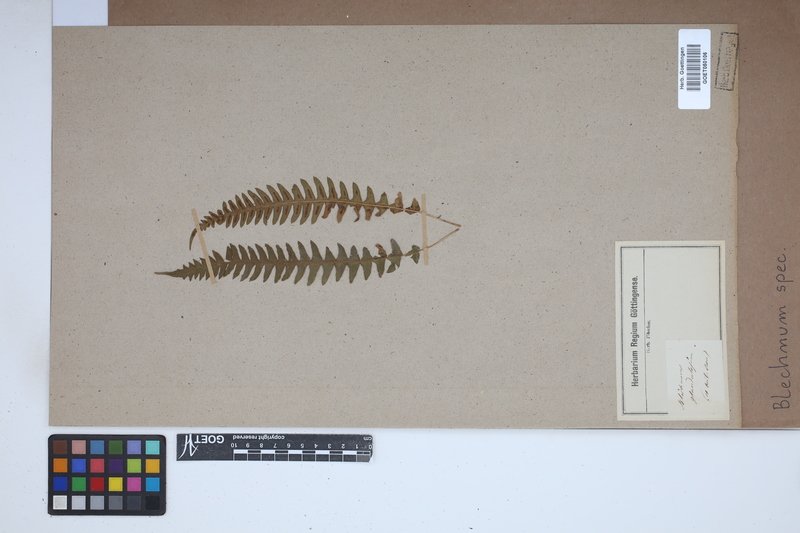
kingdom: Plantae
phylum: Tracheophyta
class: Polypodiopsida
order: Polypodiales
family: Blechnaceae
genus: Blechnum
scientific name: Blechnum
